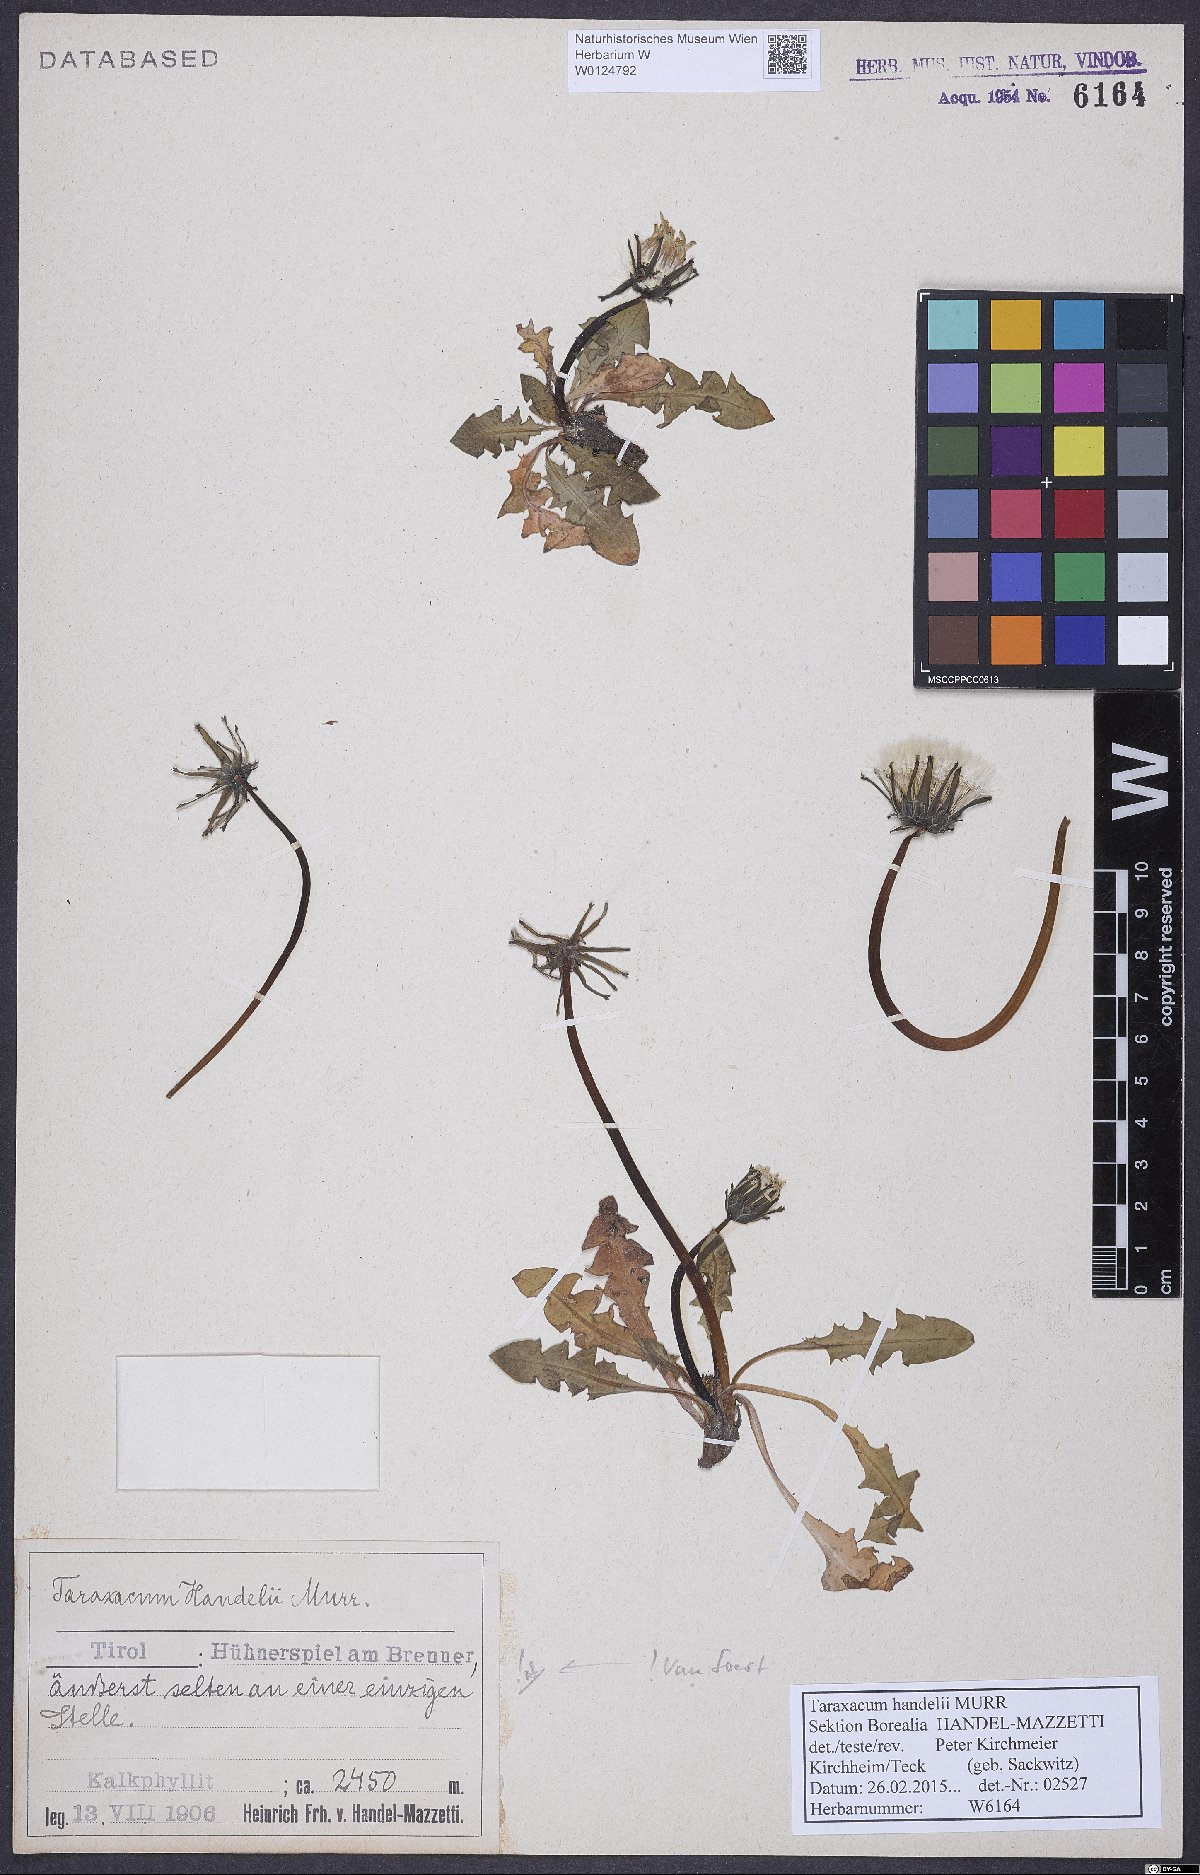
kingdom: Plantae
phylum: Tracheophyta
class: Magnoliopsida
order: Asterales
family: Asteraceae
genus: Taraxacum
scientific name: Taraxacum handelii
